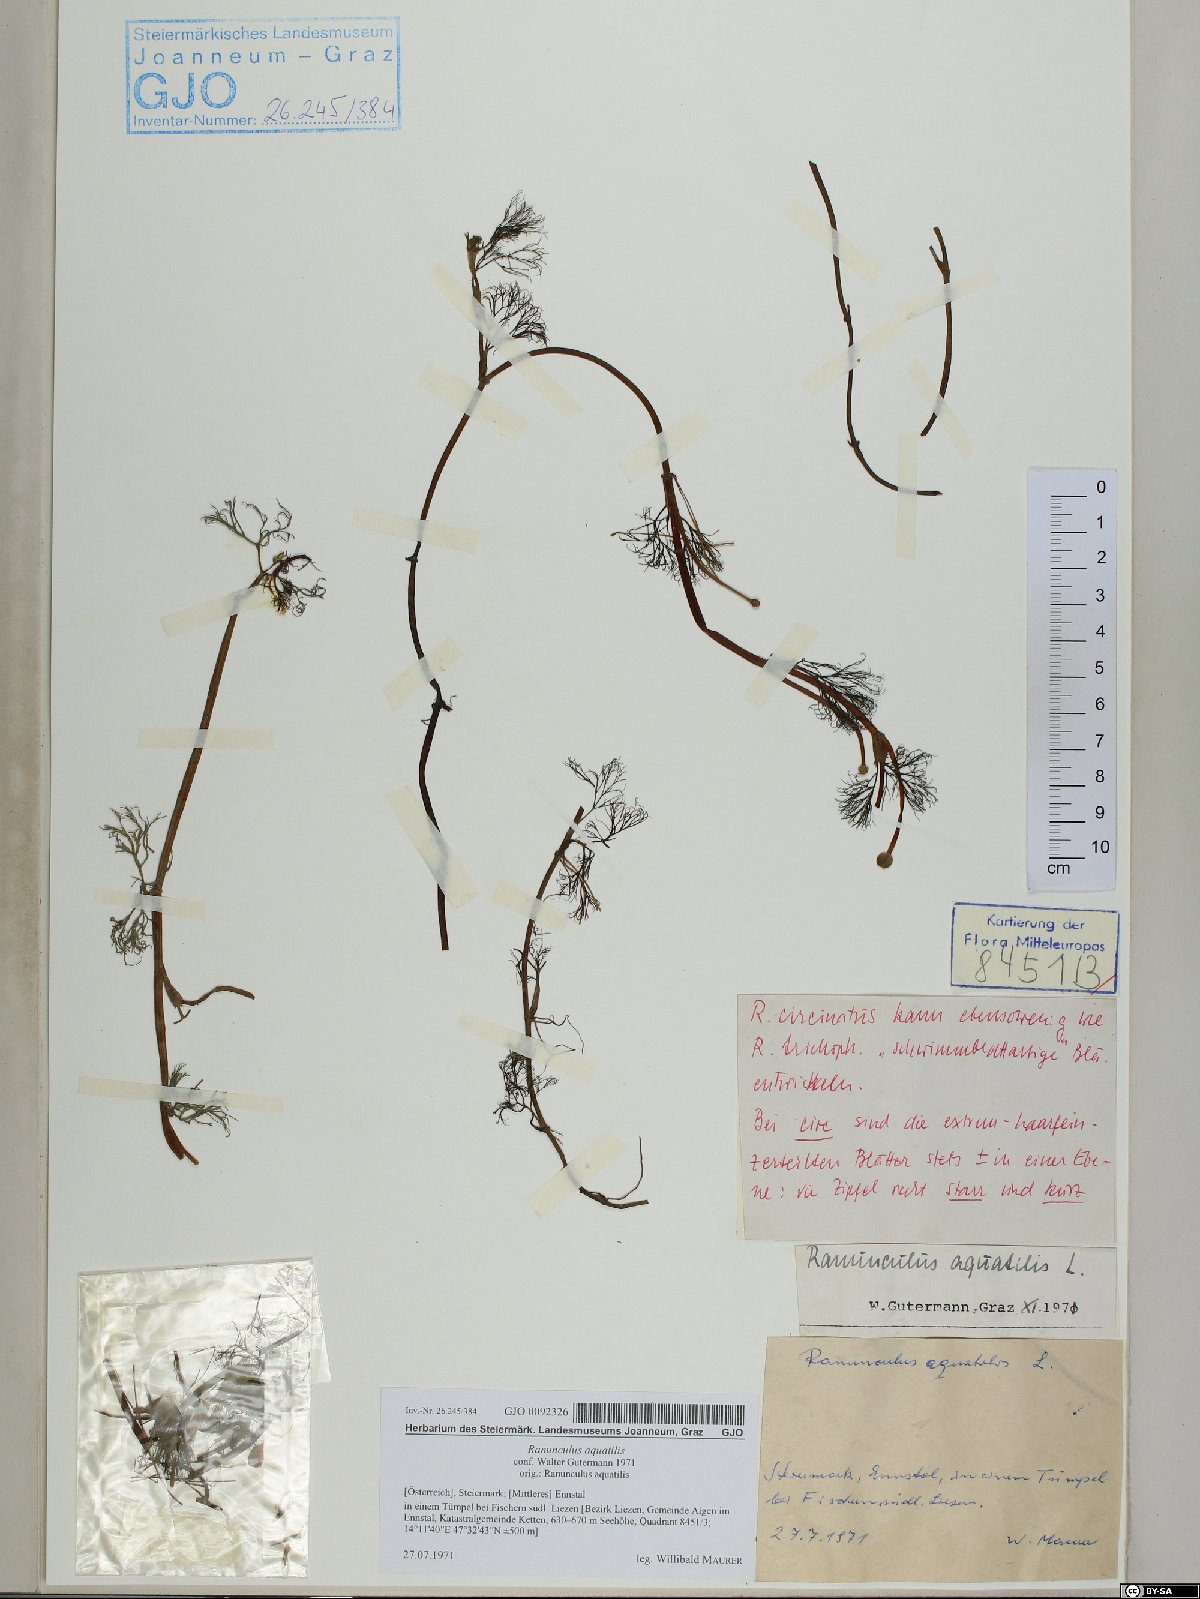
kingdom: Plantae
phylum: Tracheophyta
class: Magnoliopsida
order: Ranunculales
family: Ranunculaceae
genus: Ranunculus
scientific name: Ranunculus aquatilis
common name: Common water-crowfoot
